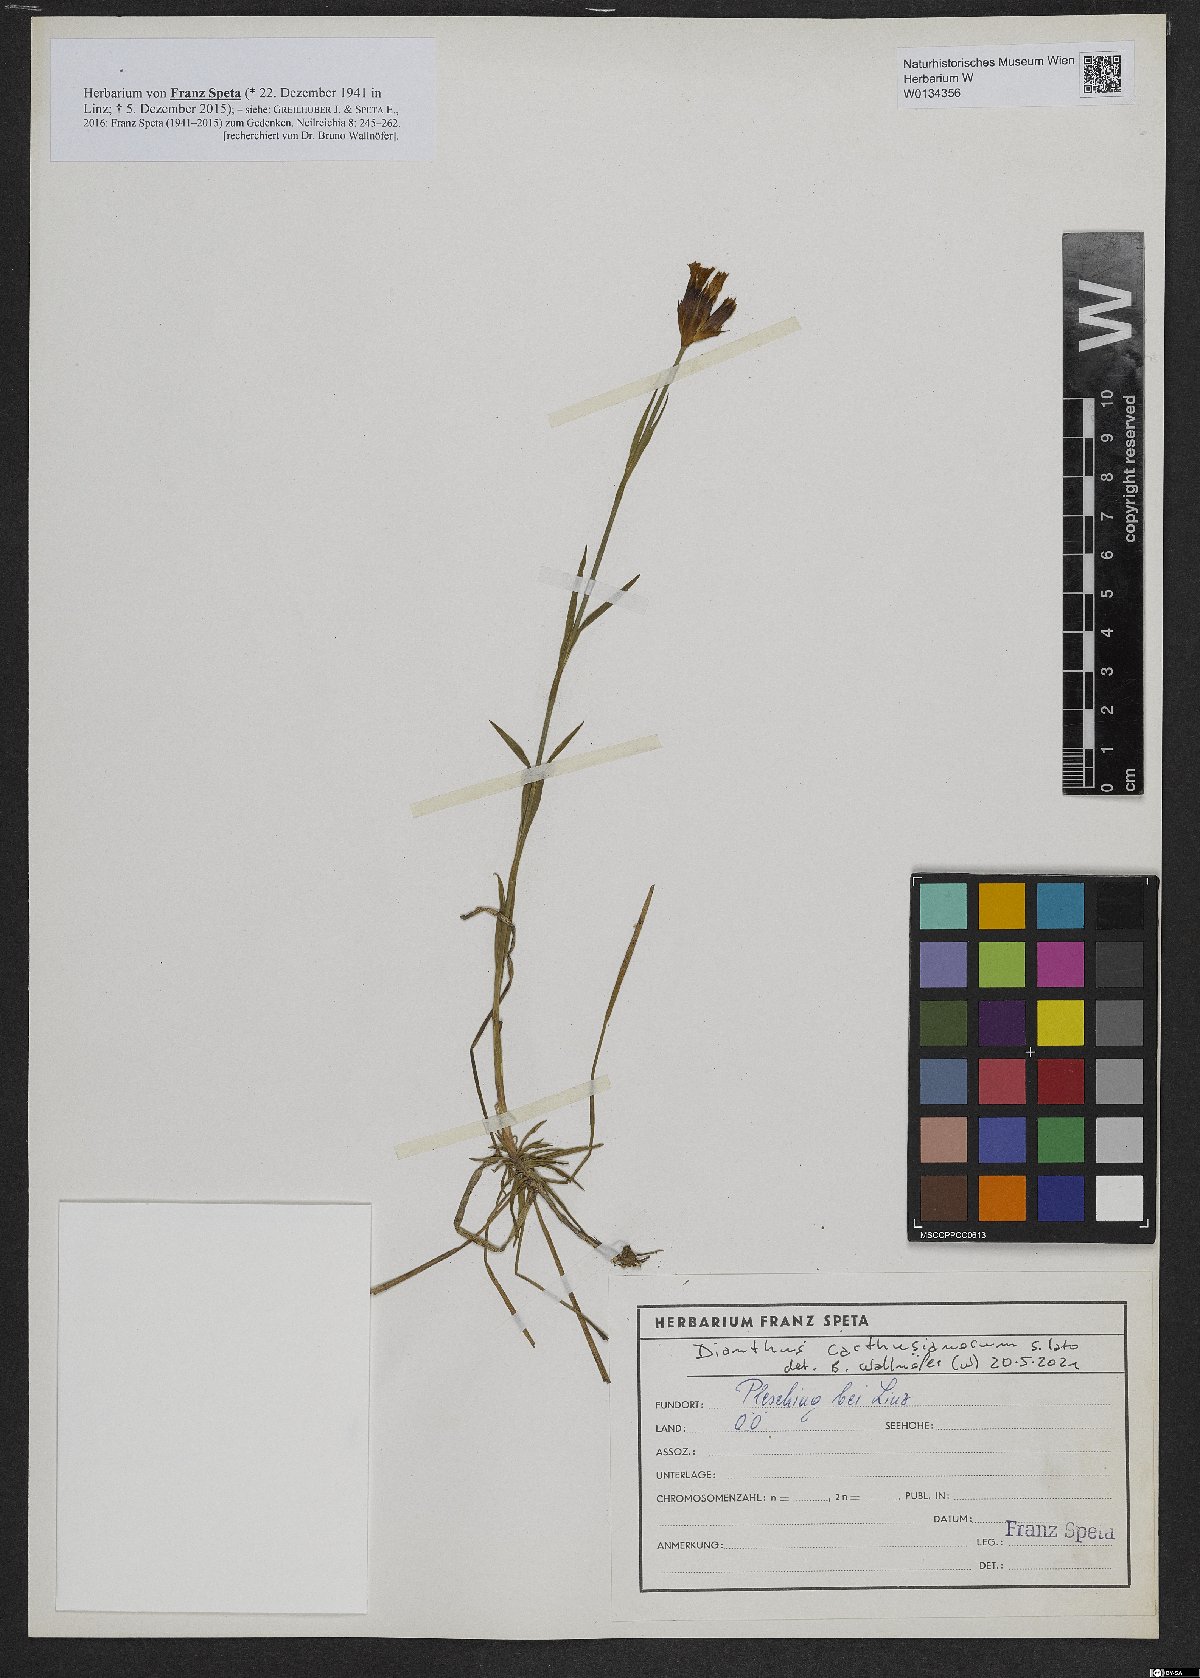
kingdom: Plantae
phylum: Tracheophyta
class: Magnoliopsida
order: Caryophyllales
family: Caryophyllaceae
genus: Dianthus
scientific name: Dianthus carthusianorum
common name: Carthusian pink
